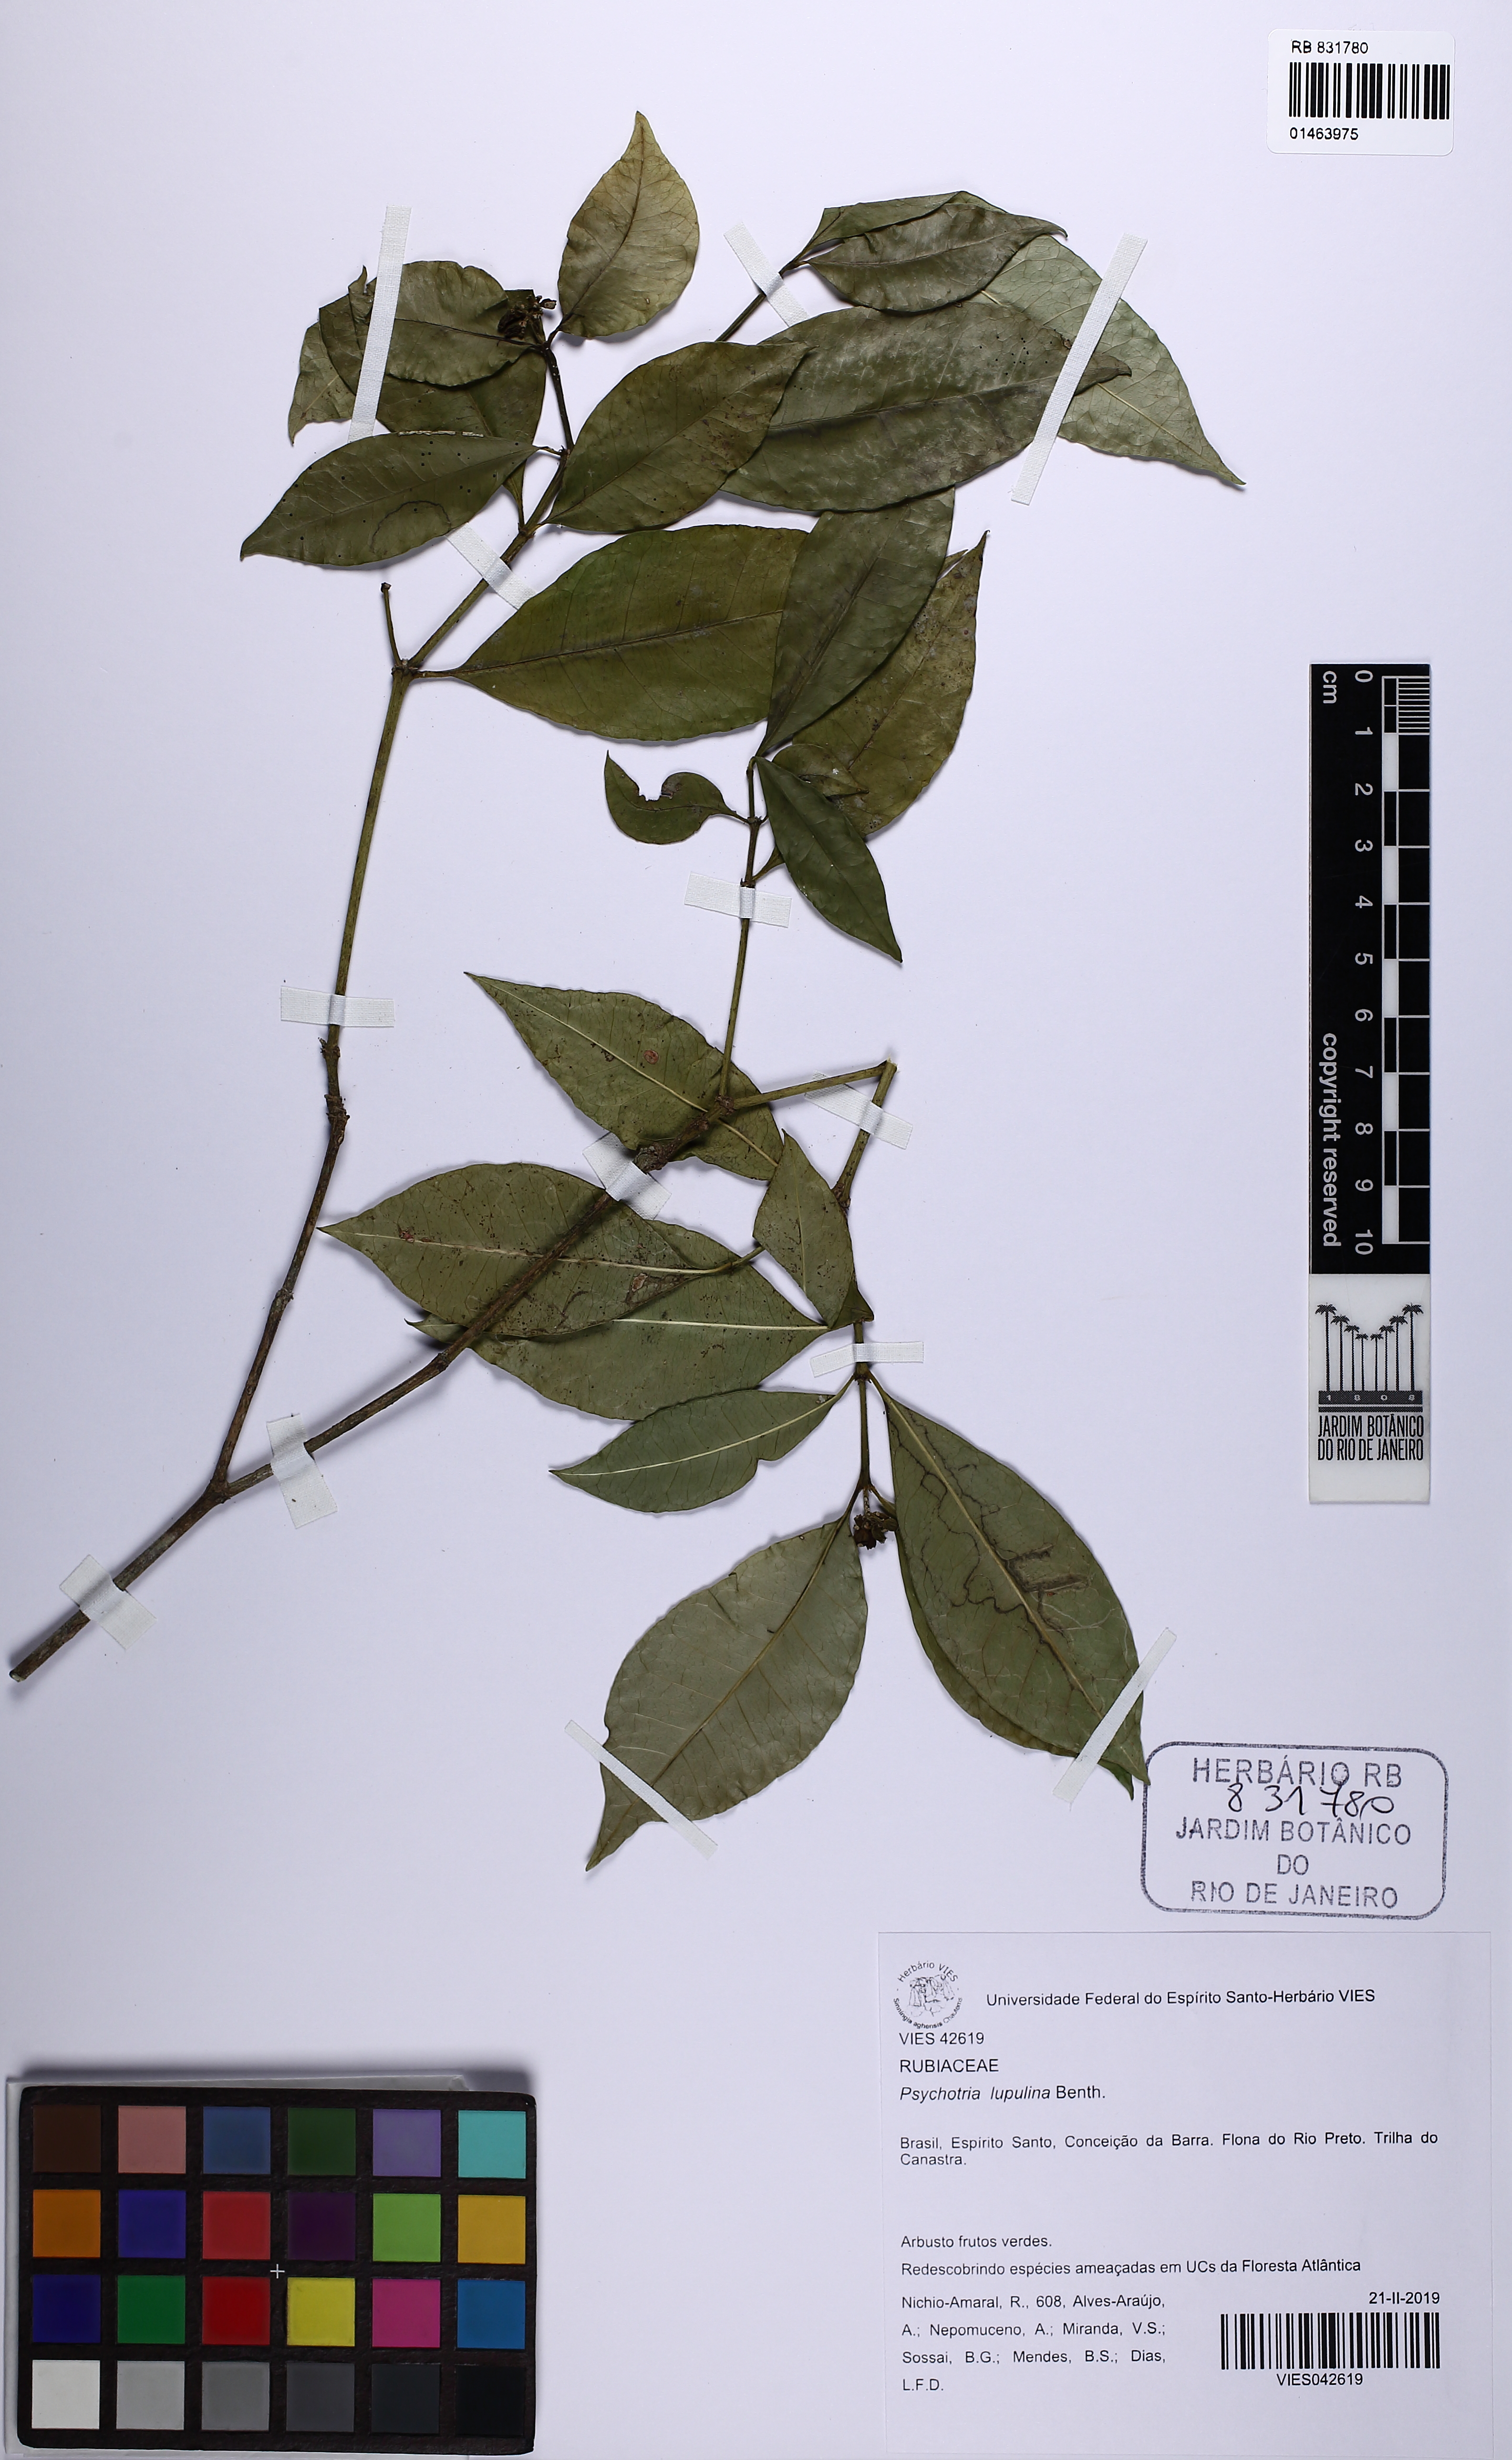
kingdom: Plantae
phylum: Tracheophyta
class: Magnoliopsida
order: Gentianales
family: Rubiaceae
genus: Eumachia
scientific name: Eumachia chaenotricha
